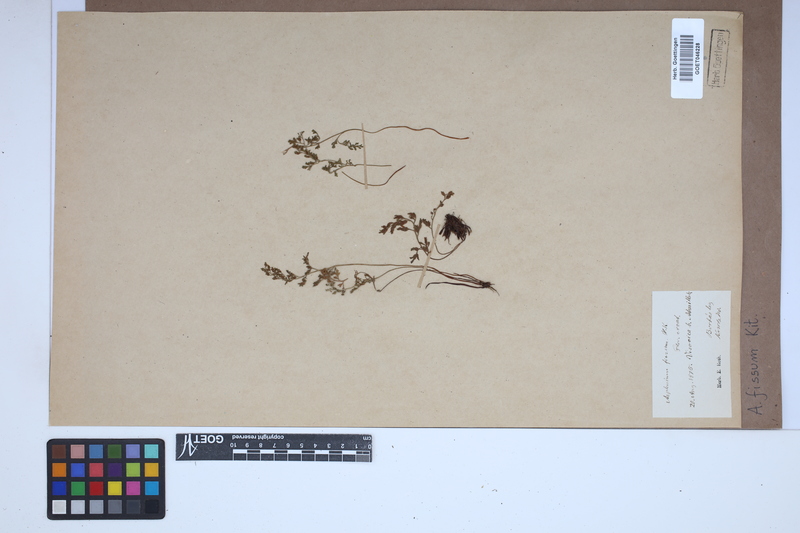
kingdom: Plantae
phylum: Tracheophyta
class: Polypodiopsida
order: Polypodiales
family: Aspleniaceae
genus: Asplenium
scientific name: Asplenium fissum
